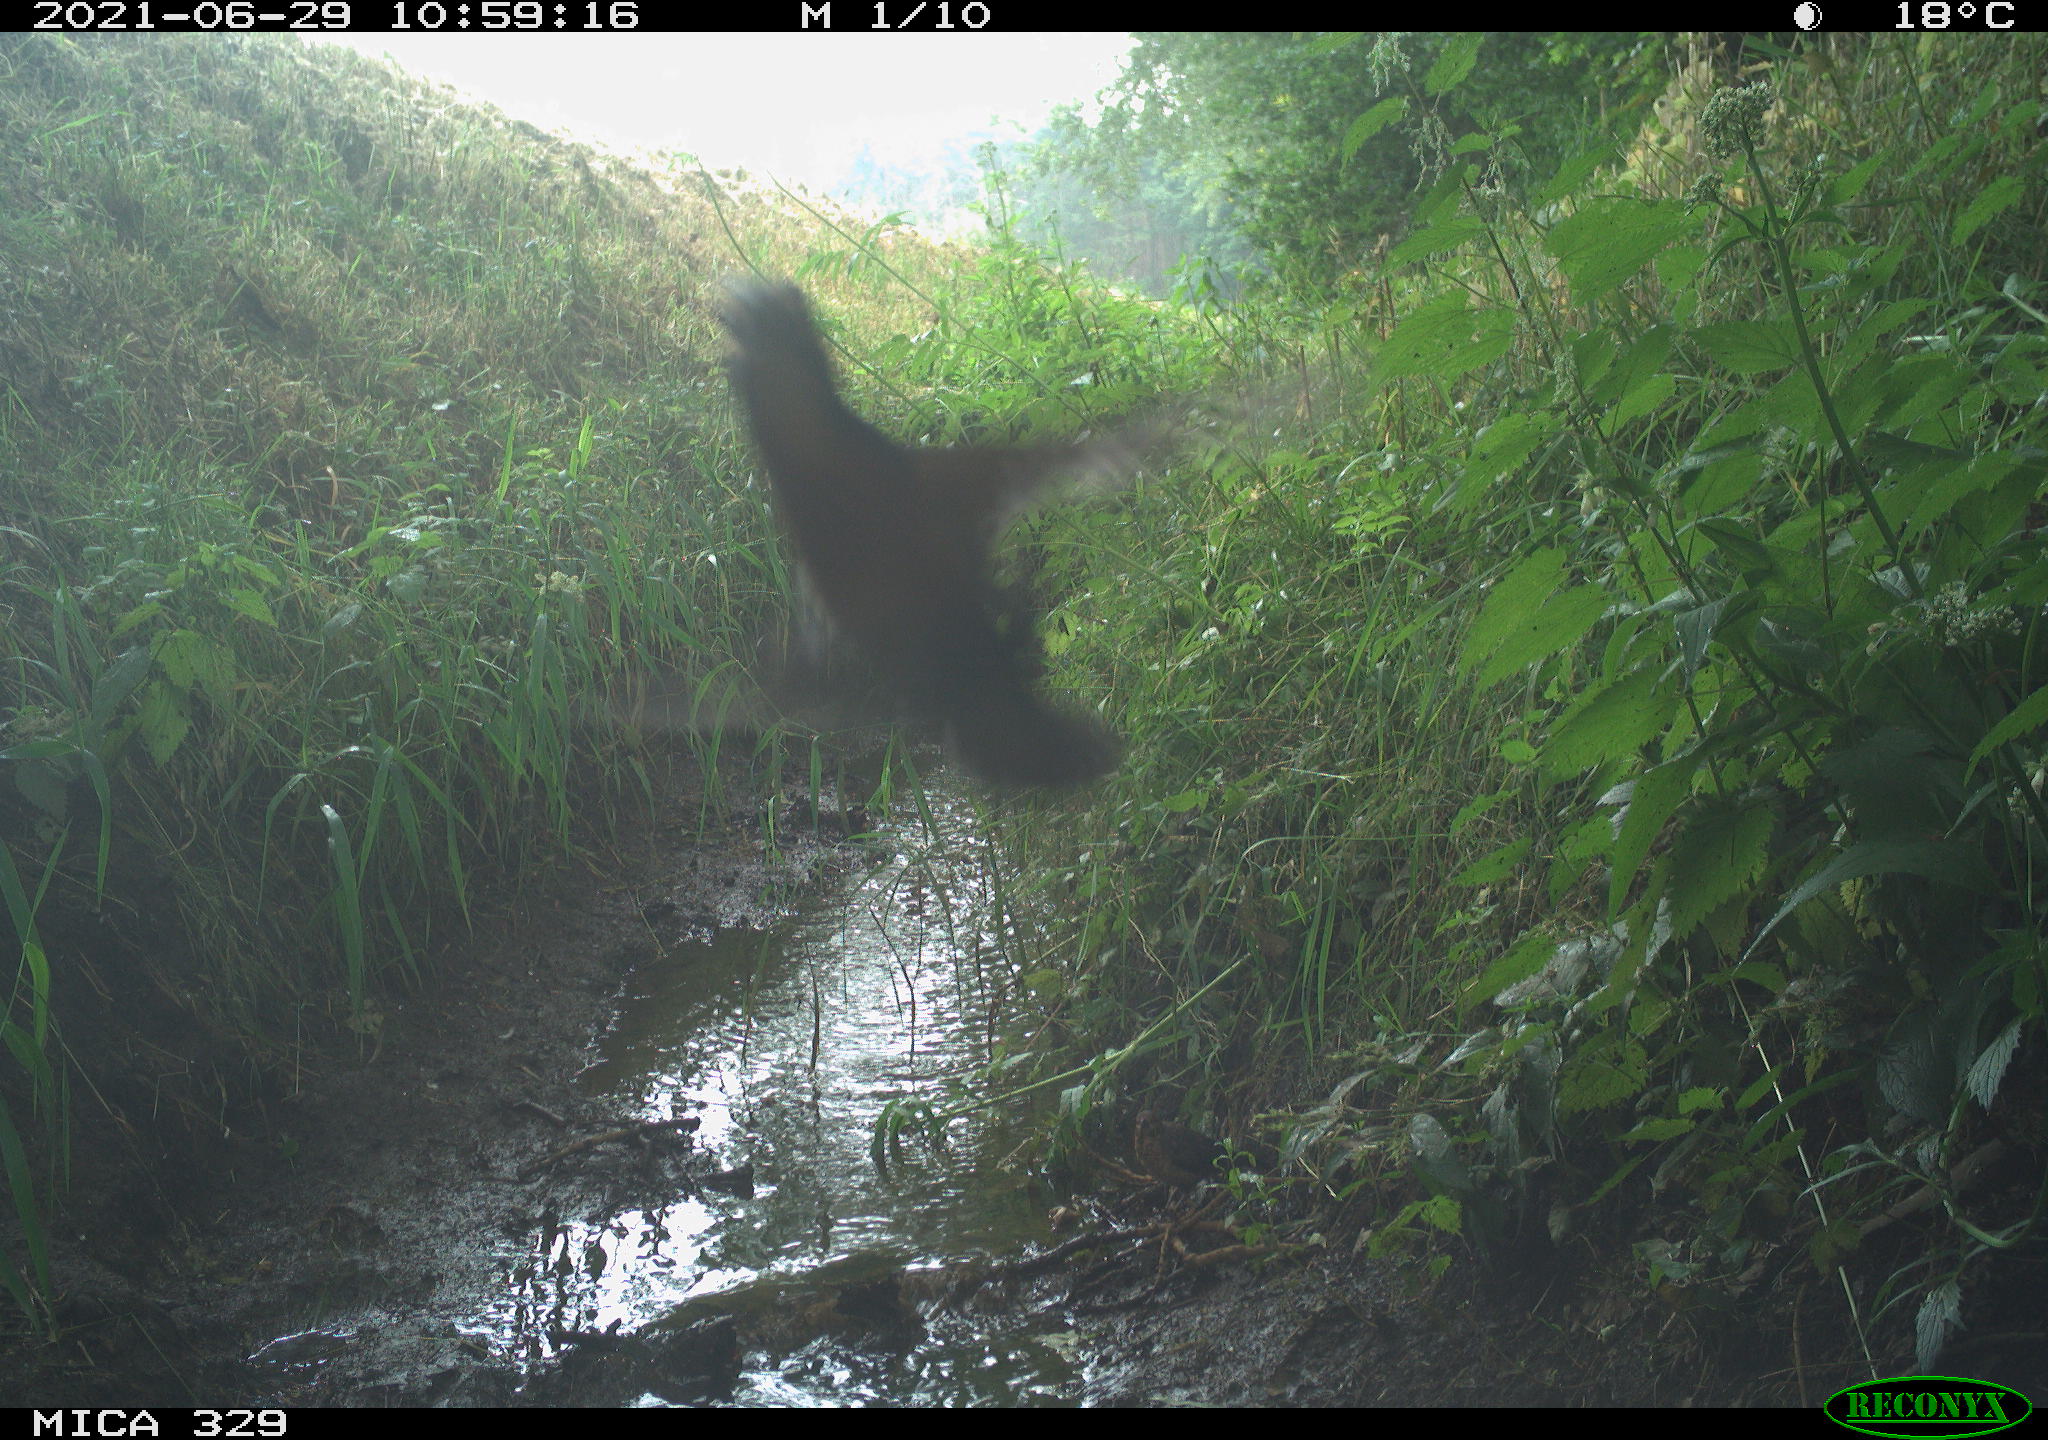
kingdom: Animalia
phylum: Chordata
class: Aves
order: Coraciiformes
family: Alcedinidae
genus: Alcedo
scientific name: Alcedo atthis
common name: Common kingfisher
